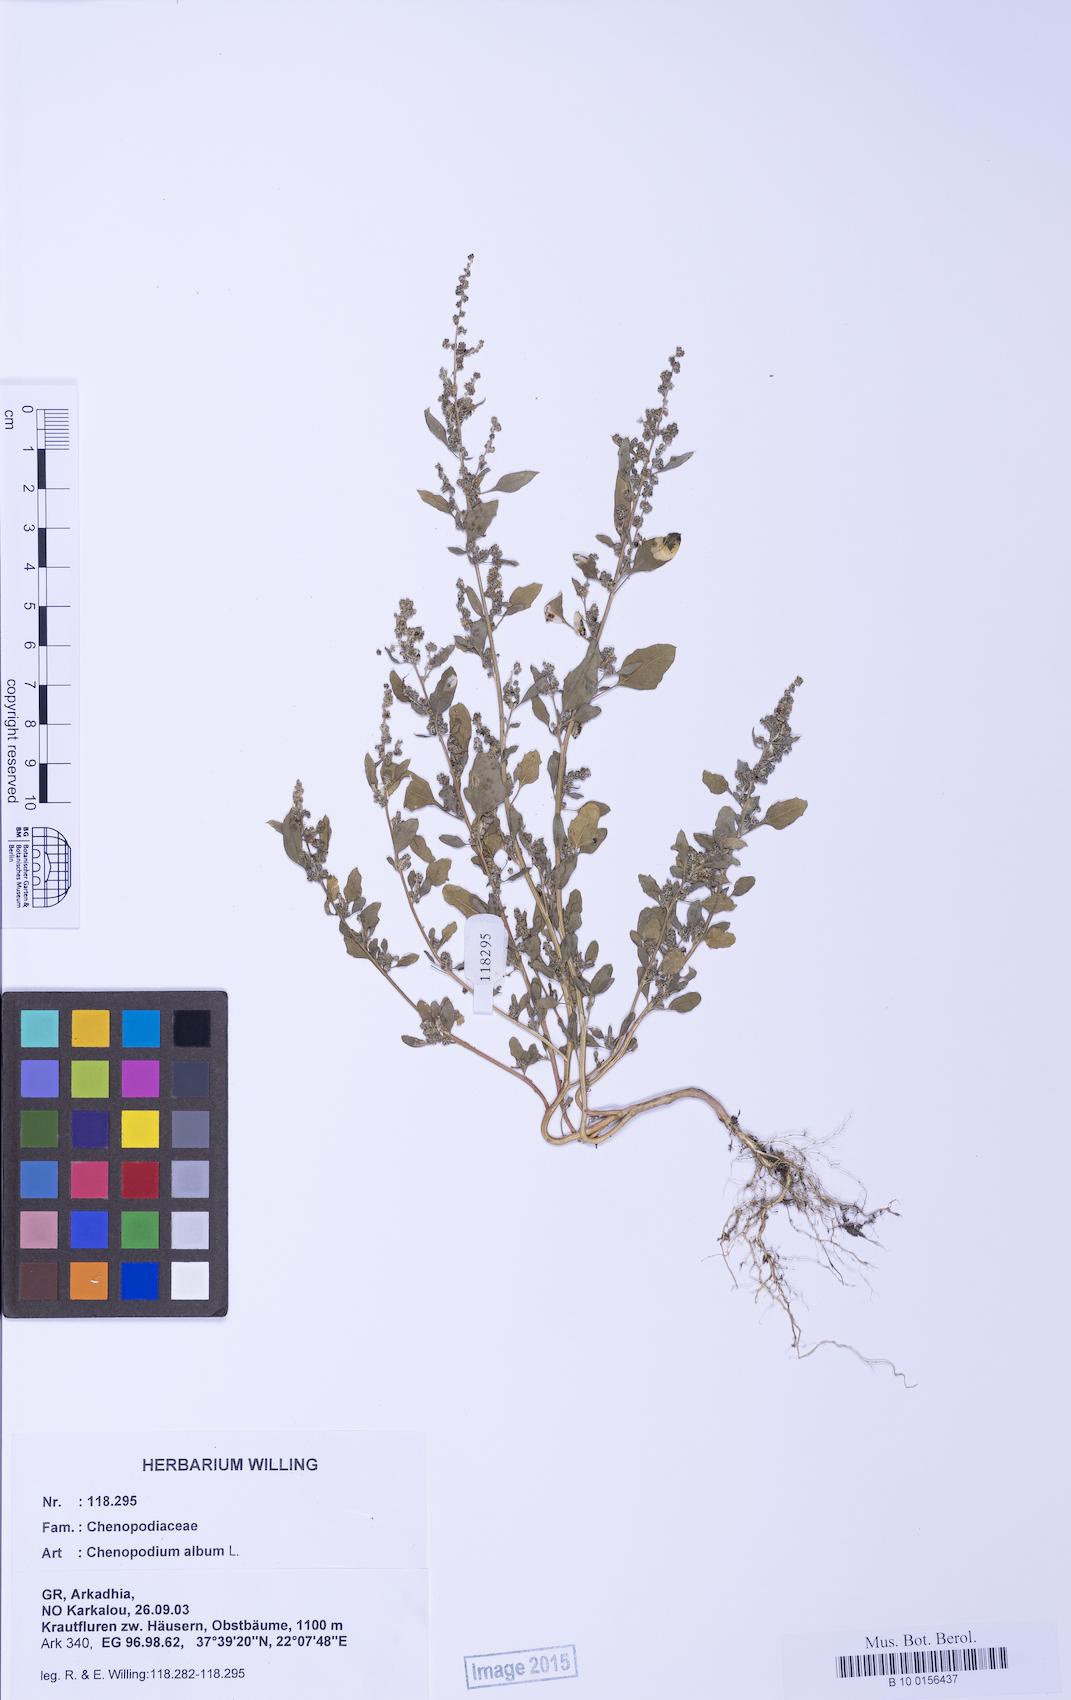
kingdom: Plantae
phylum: Tracheophyta
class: Magnoliopsida
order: Caryophyllales
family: Amaranthaceae
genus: Chenopodium
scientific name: Chenopodium striatiforme
